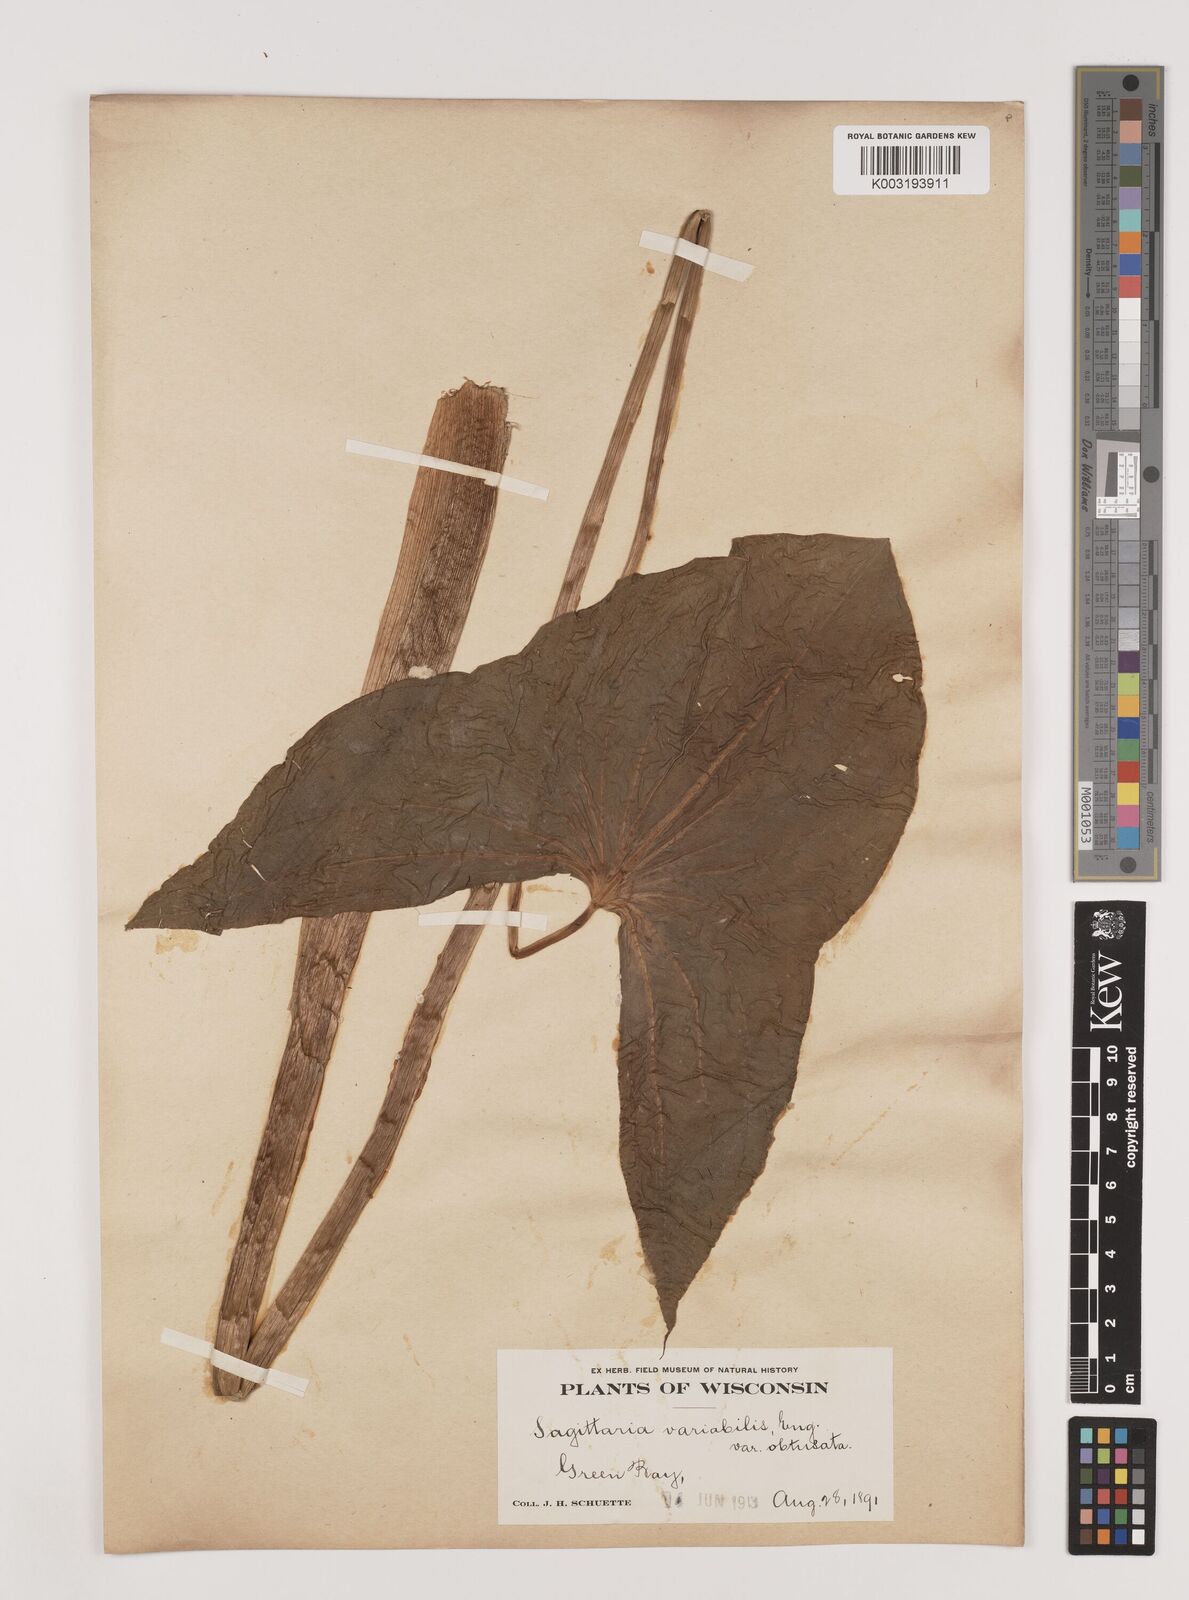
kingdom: Plantae
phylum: Tracheophyta
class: Liliopsida
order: Alismatales
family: Alismataceae
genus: Sagittaria
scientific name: Sagittaria latifolia
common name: Duck-potato
